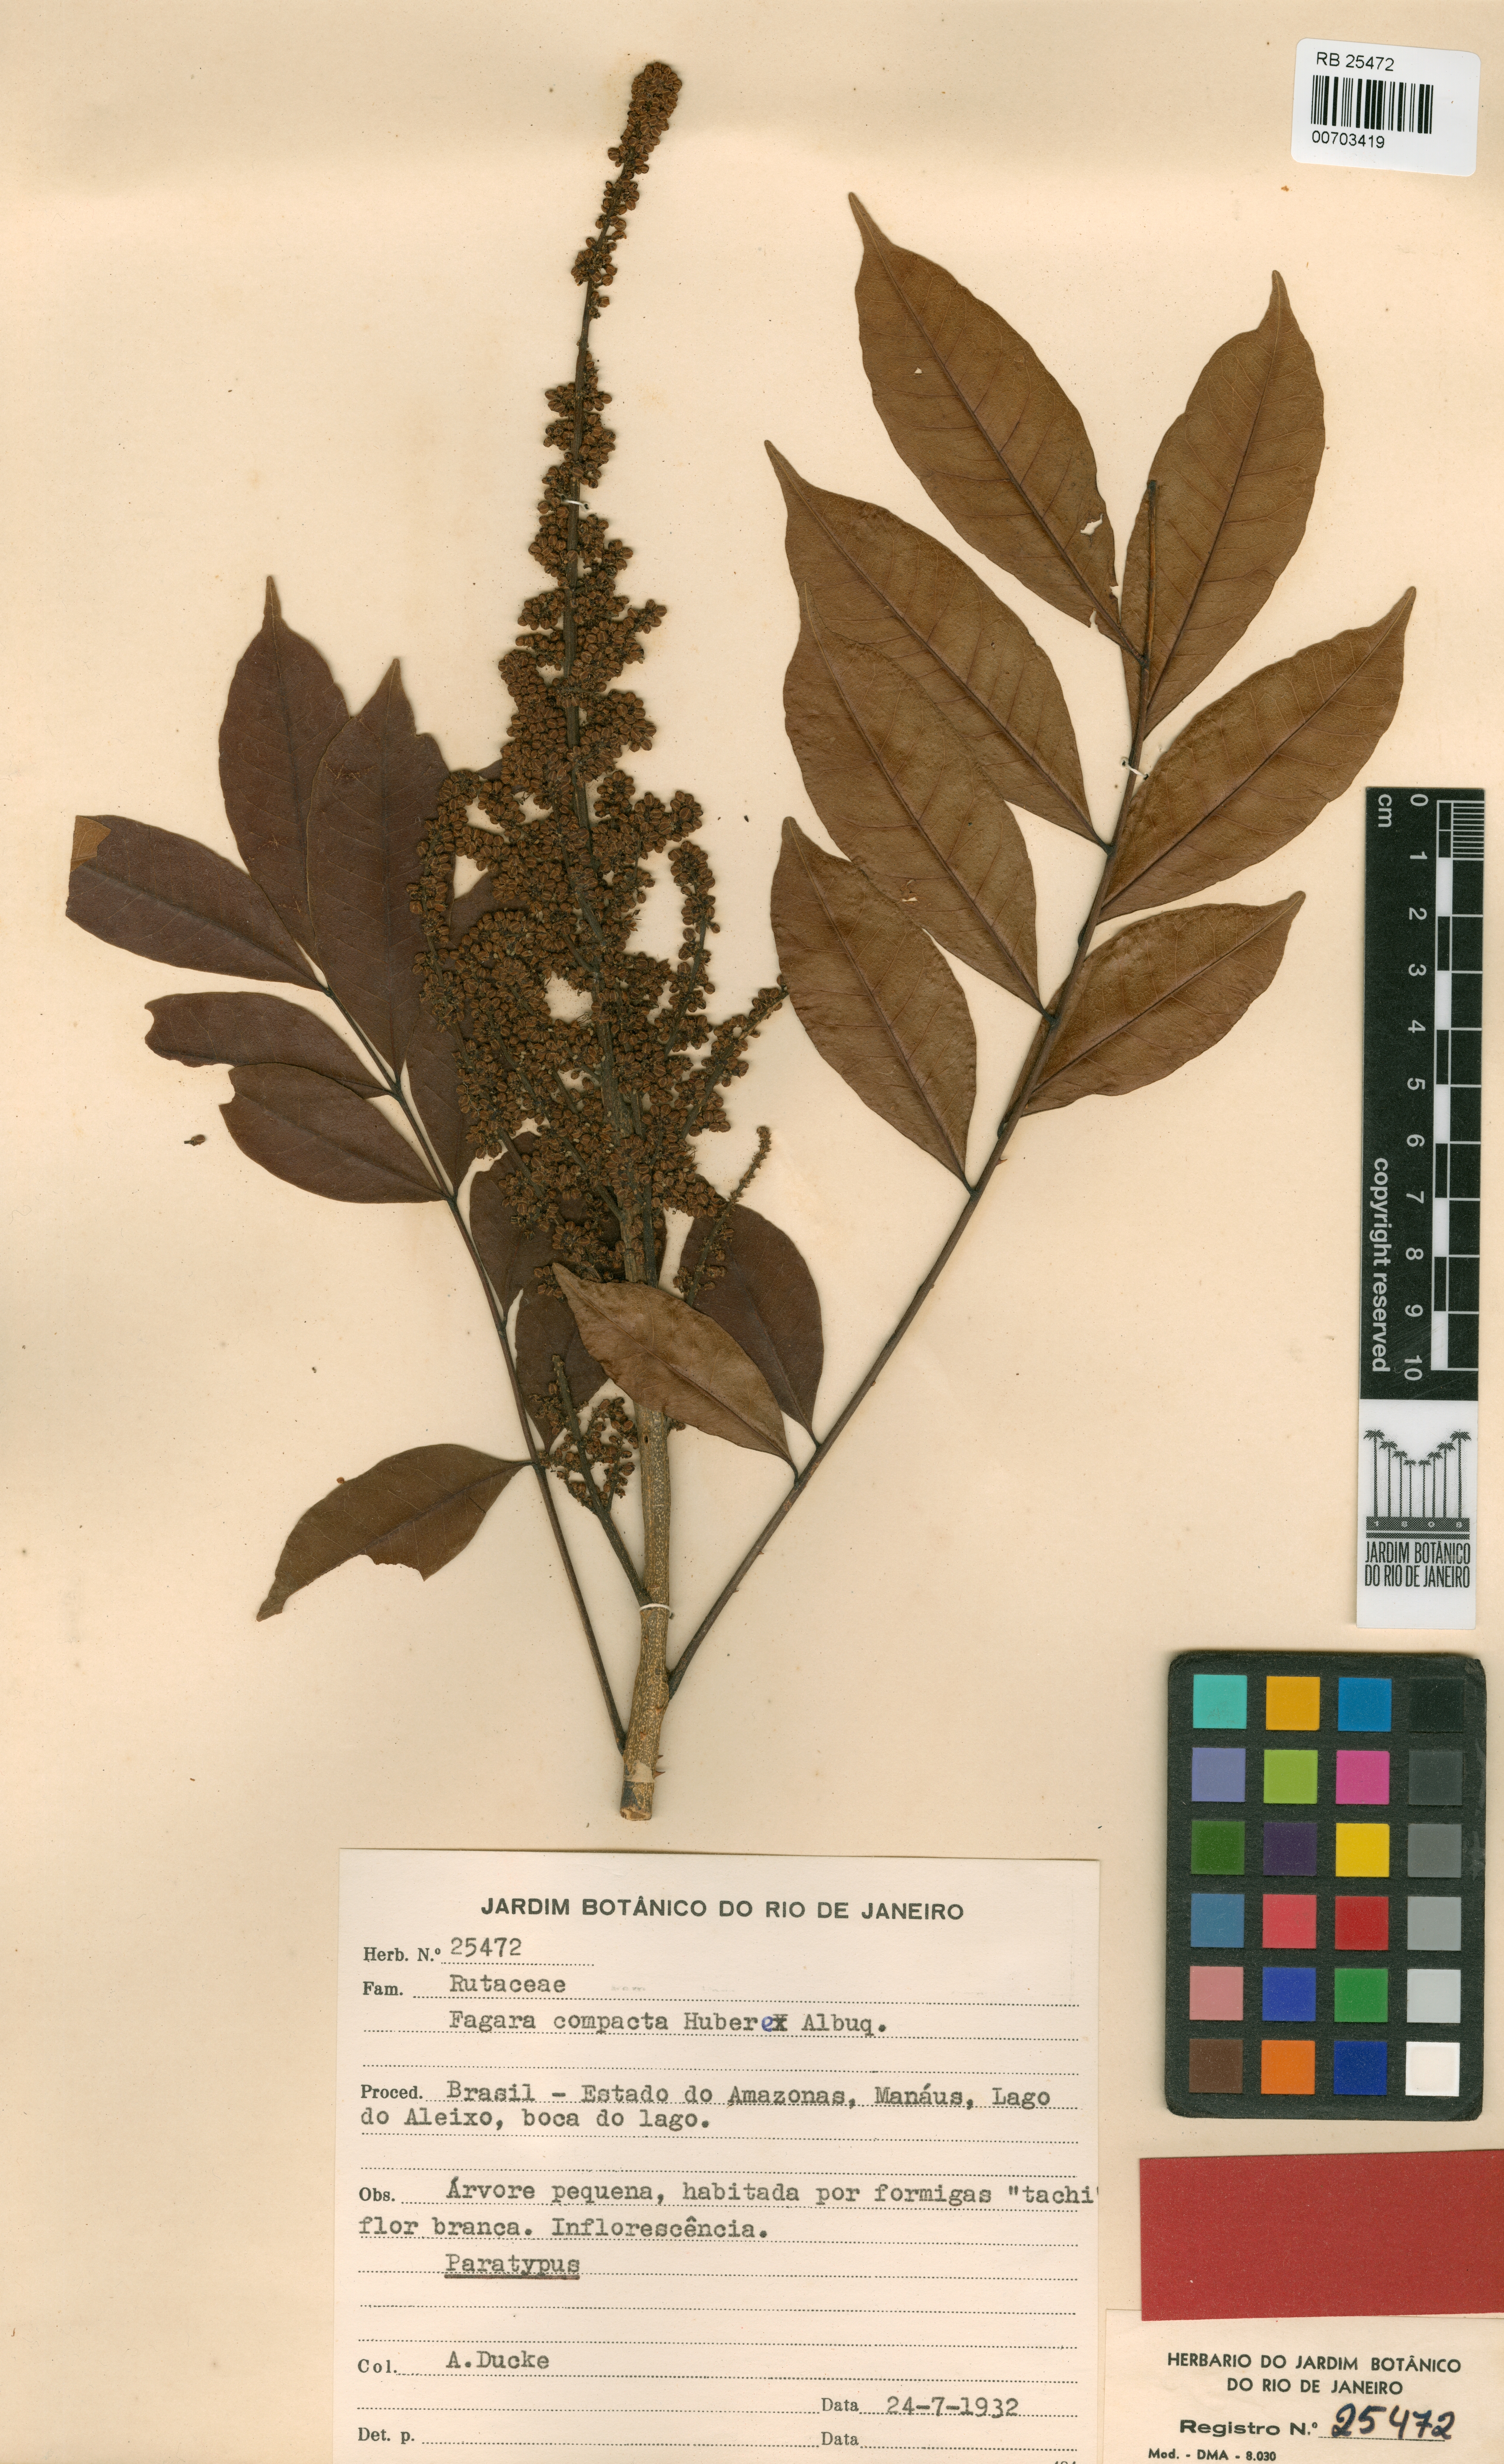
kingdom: Plantae
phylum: Tracheophyta
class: Magnoliopsida
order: Sapindales
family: Rutaceae
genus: Zanthoxylum
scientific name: Zanthoxylum compactum
